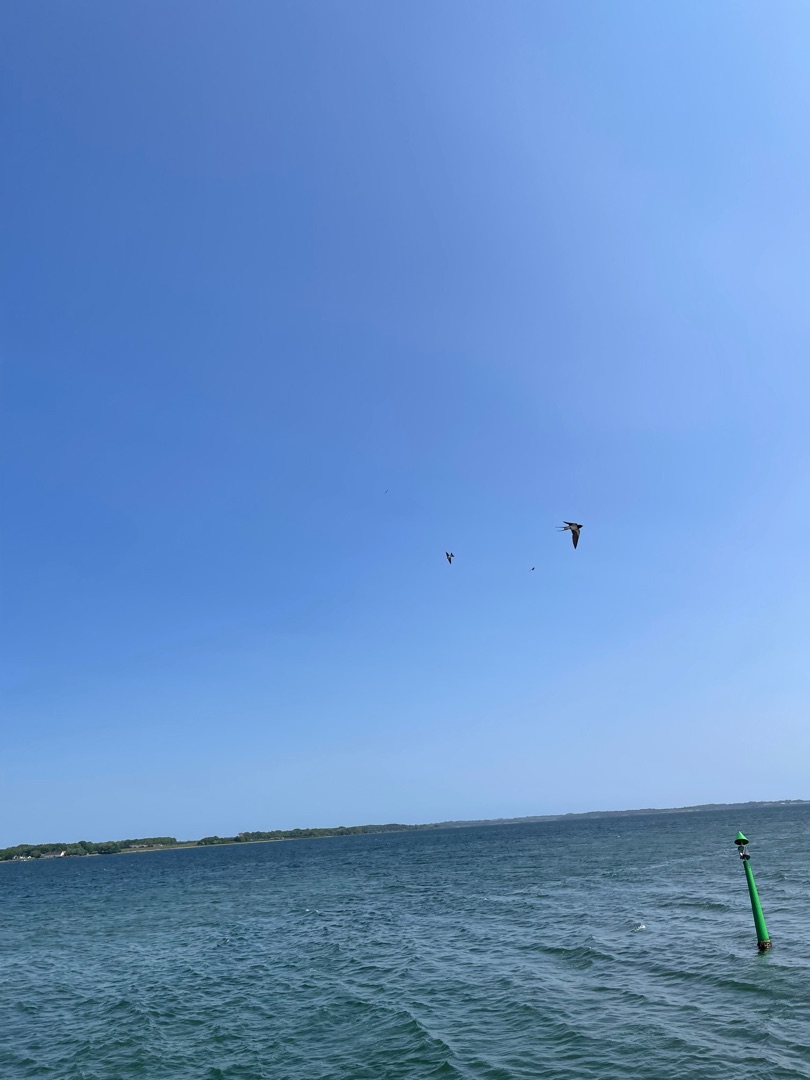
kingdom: Animalia
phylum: Chordata
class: Aves
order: Passeriformes
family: Hirundinidae
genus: Hirundo
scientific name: Hirundo rustica
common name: Landsvale
